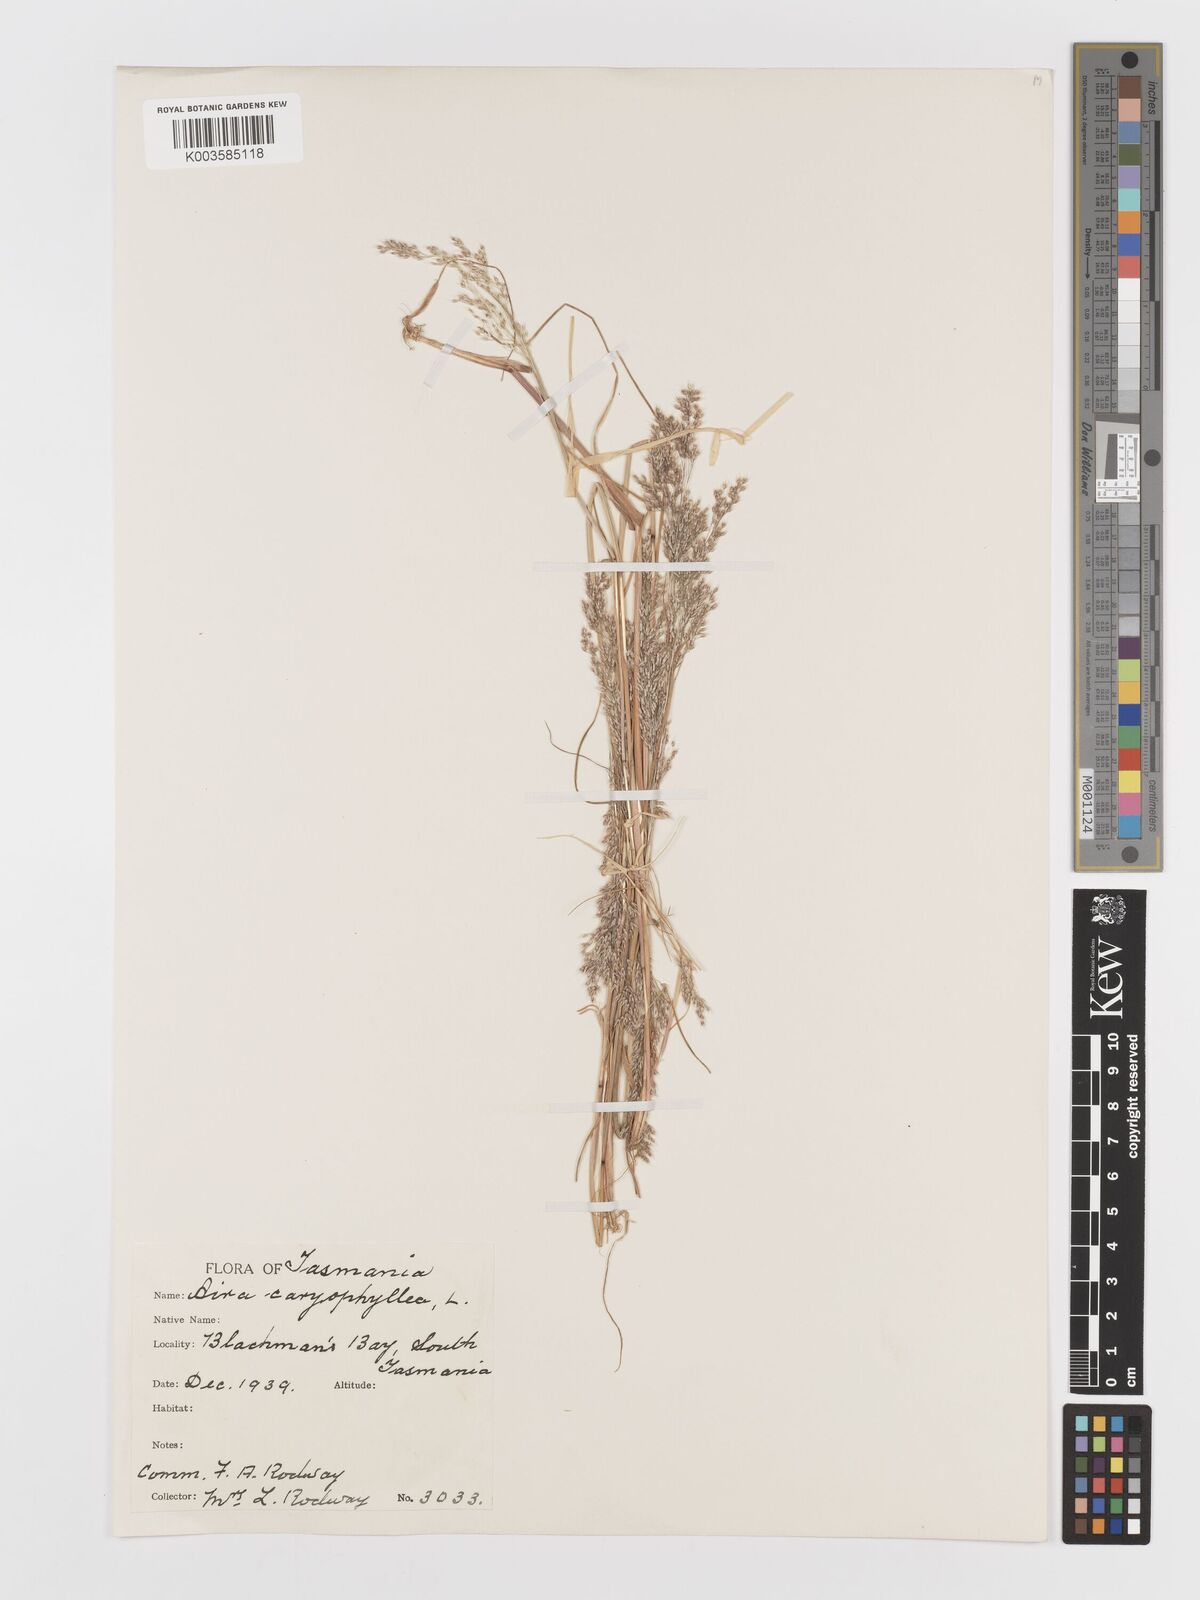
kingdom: Plantae
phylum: Tracheophyta
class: Liliopsida
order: Poales
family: Poaceae
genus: Aira
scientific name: Aira caryophyllea
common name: Silver hairgrass
